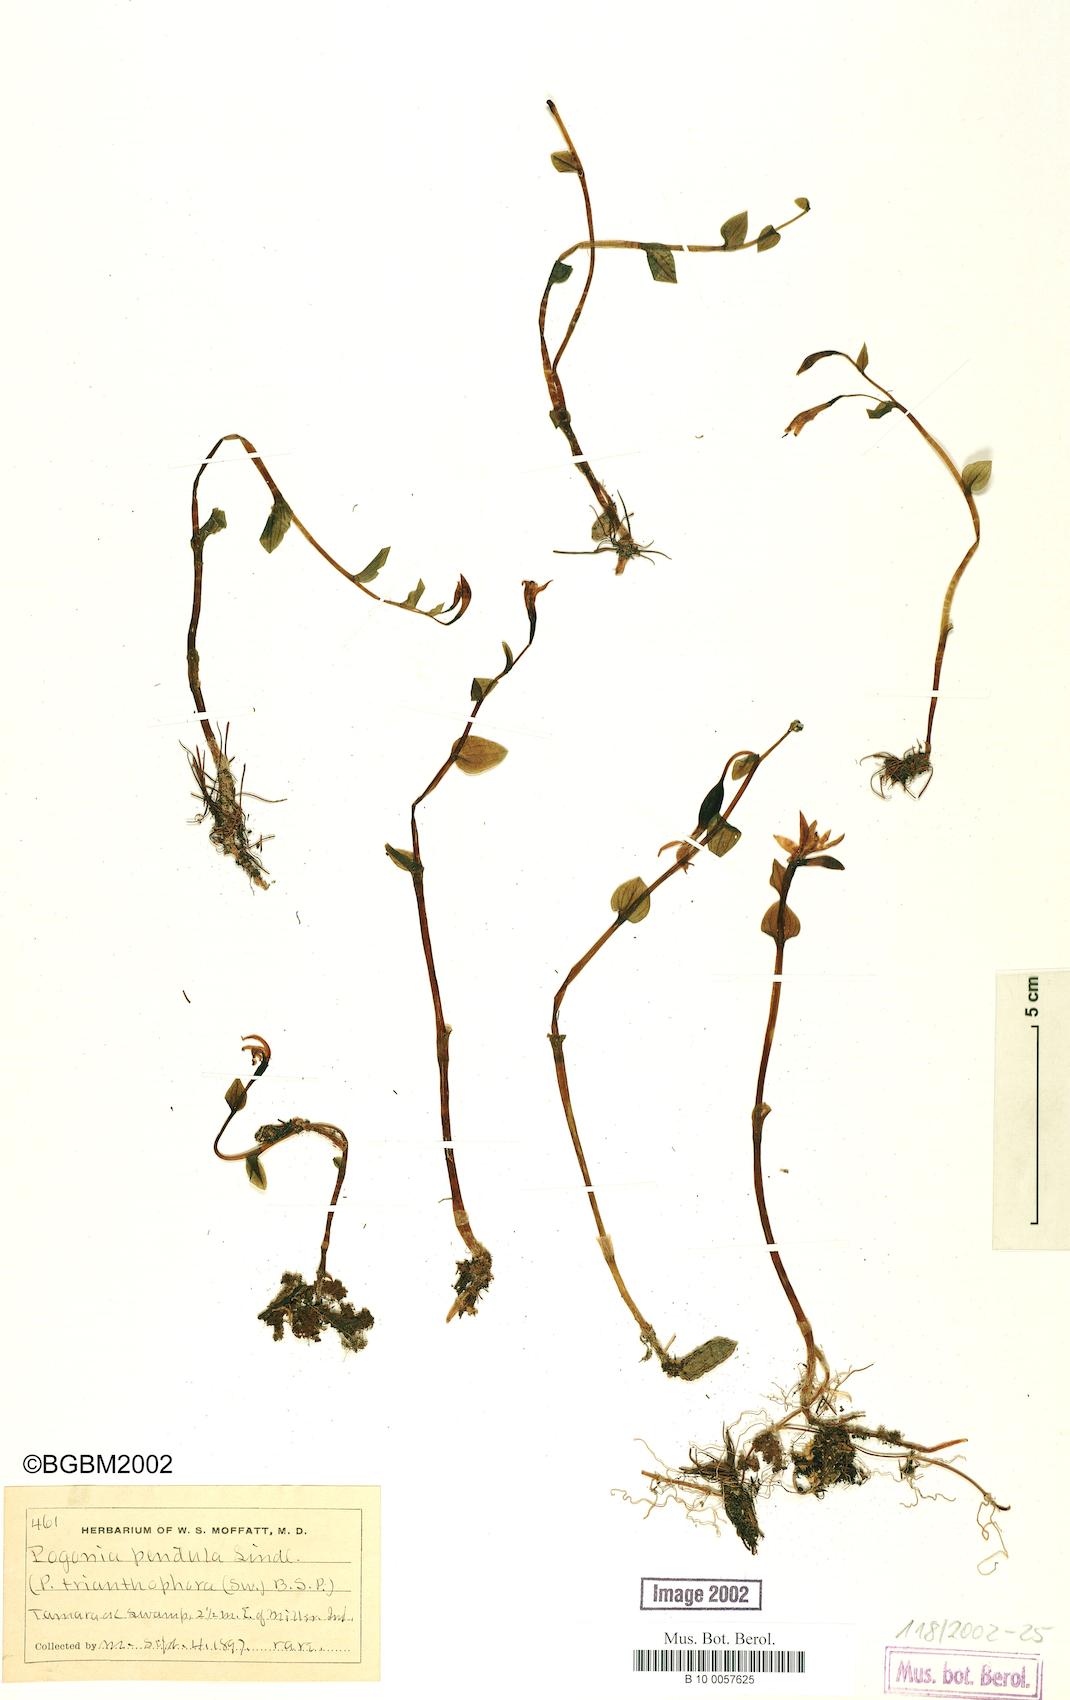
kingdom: Plantae
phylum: Tracheophyta
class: Liliopsida
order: Asparagales
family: Orchidaceae
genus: Pogonia
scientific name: Pogonia ophioglossoides
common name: Rose pogonia
